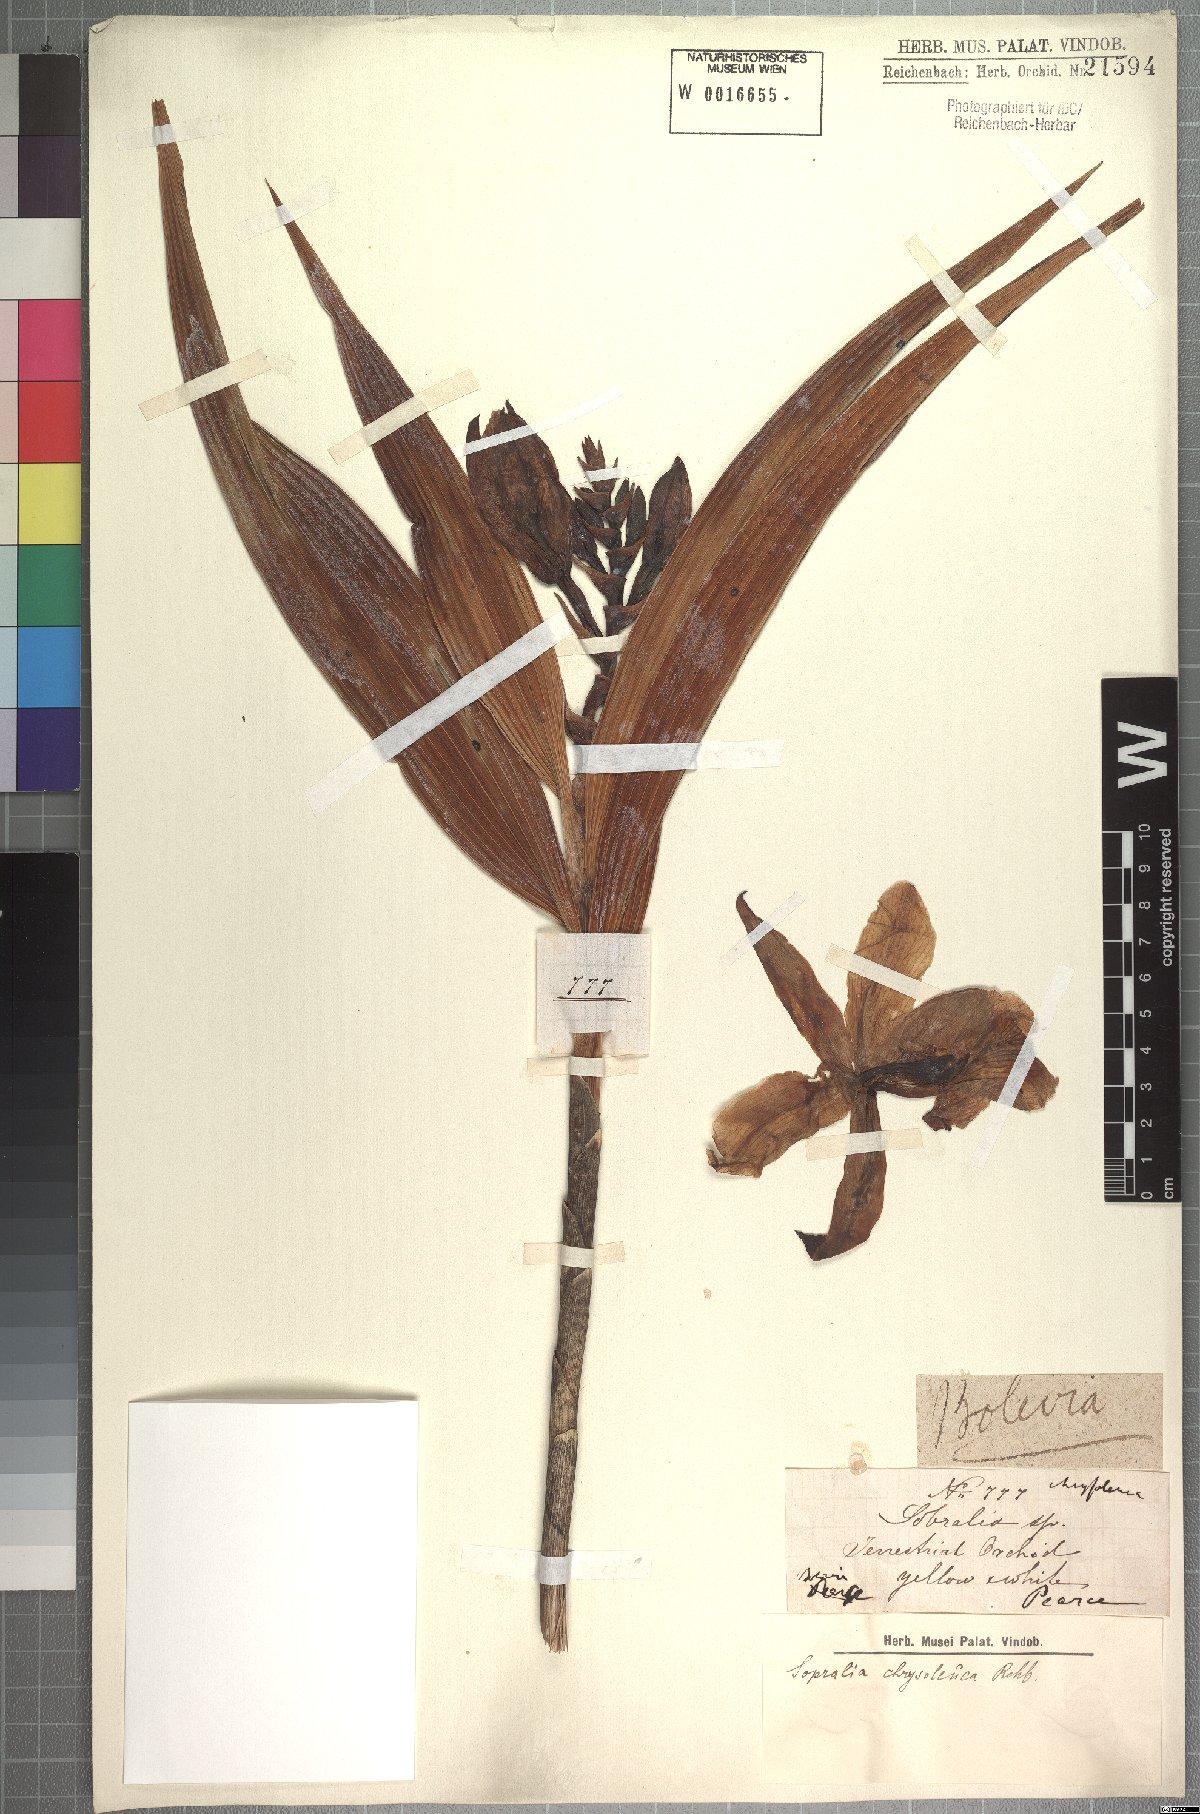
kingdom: Plantae
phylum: Tracheophyta
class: Liliopsida
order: Asparagales
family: Orchidaceae
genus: Sobralia
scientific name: Sobralia chrysoleuca
